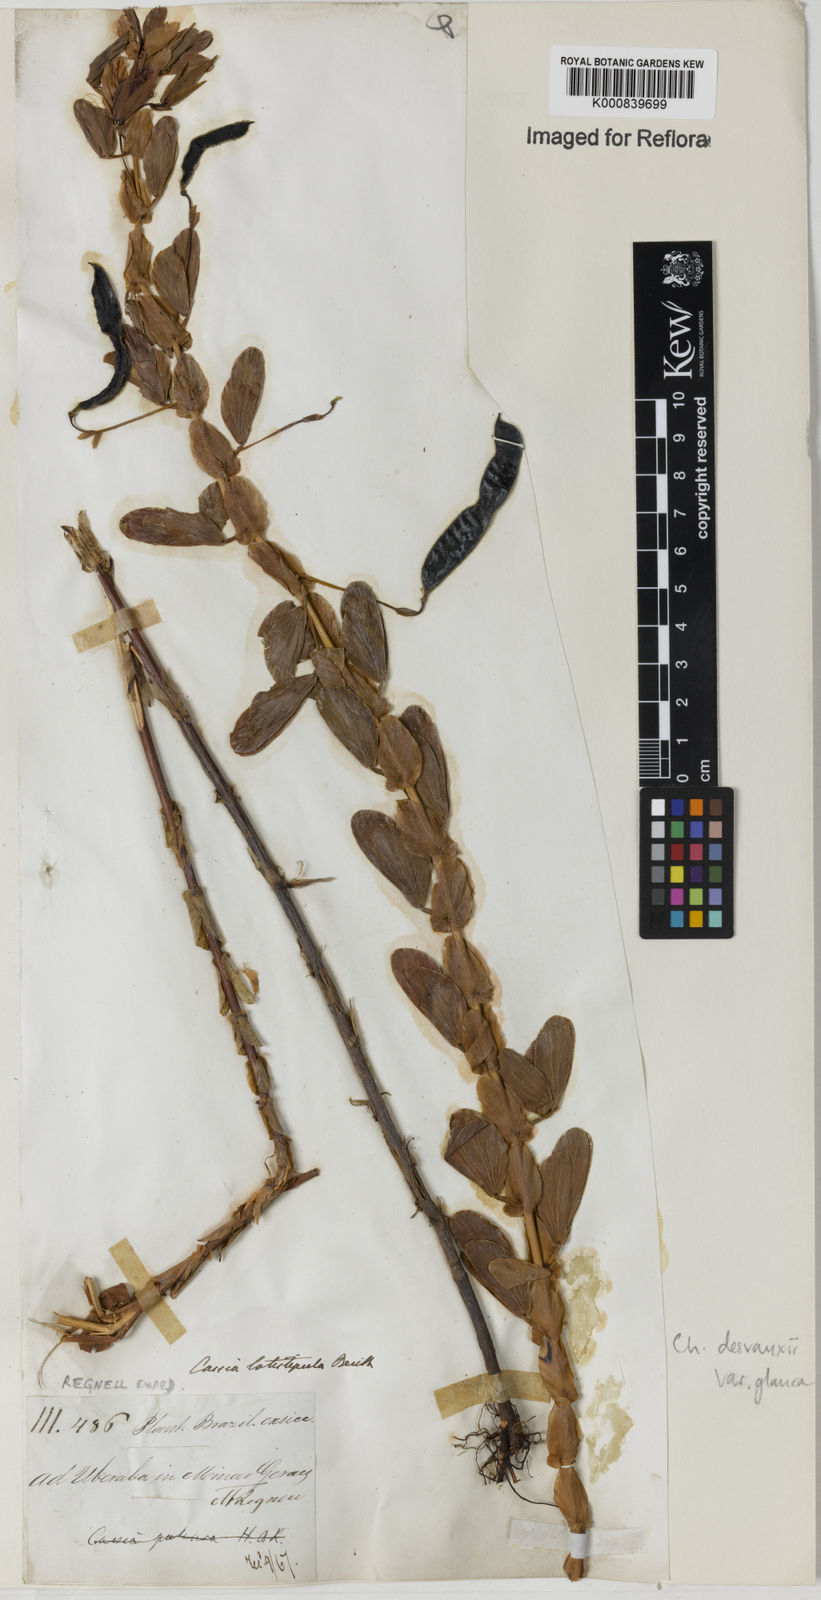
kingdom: Plantae
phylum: Tracheophyta
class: Magnoliopsida
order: Fabales
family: Fabaceae
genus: Chamaecrista
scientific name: Chamaecrista desvauxii
